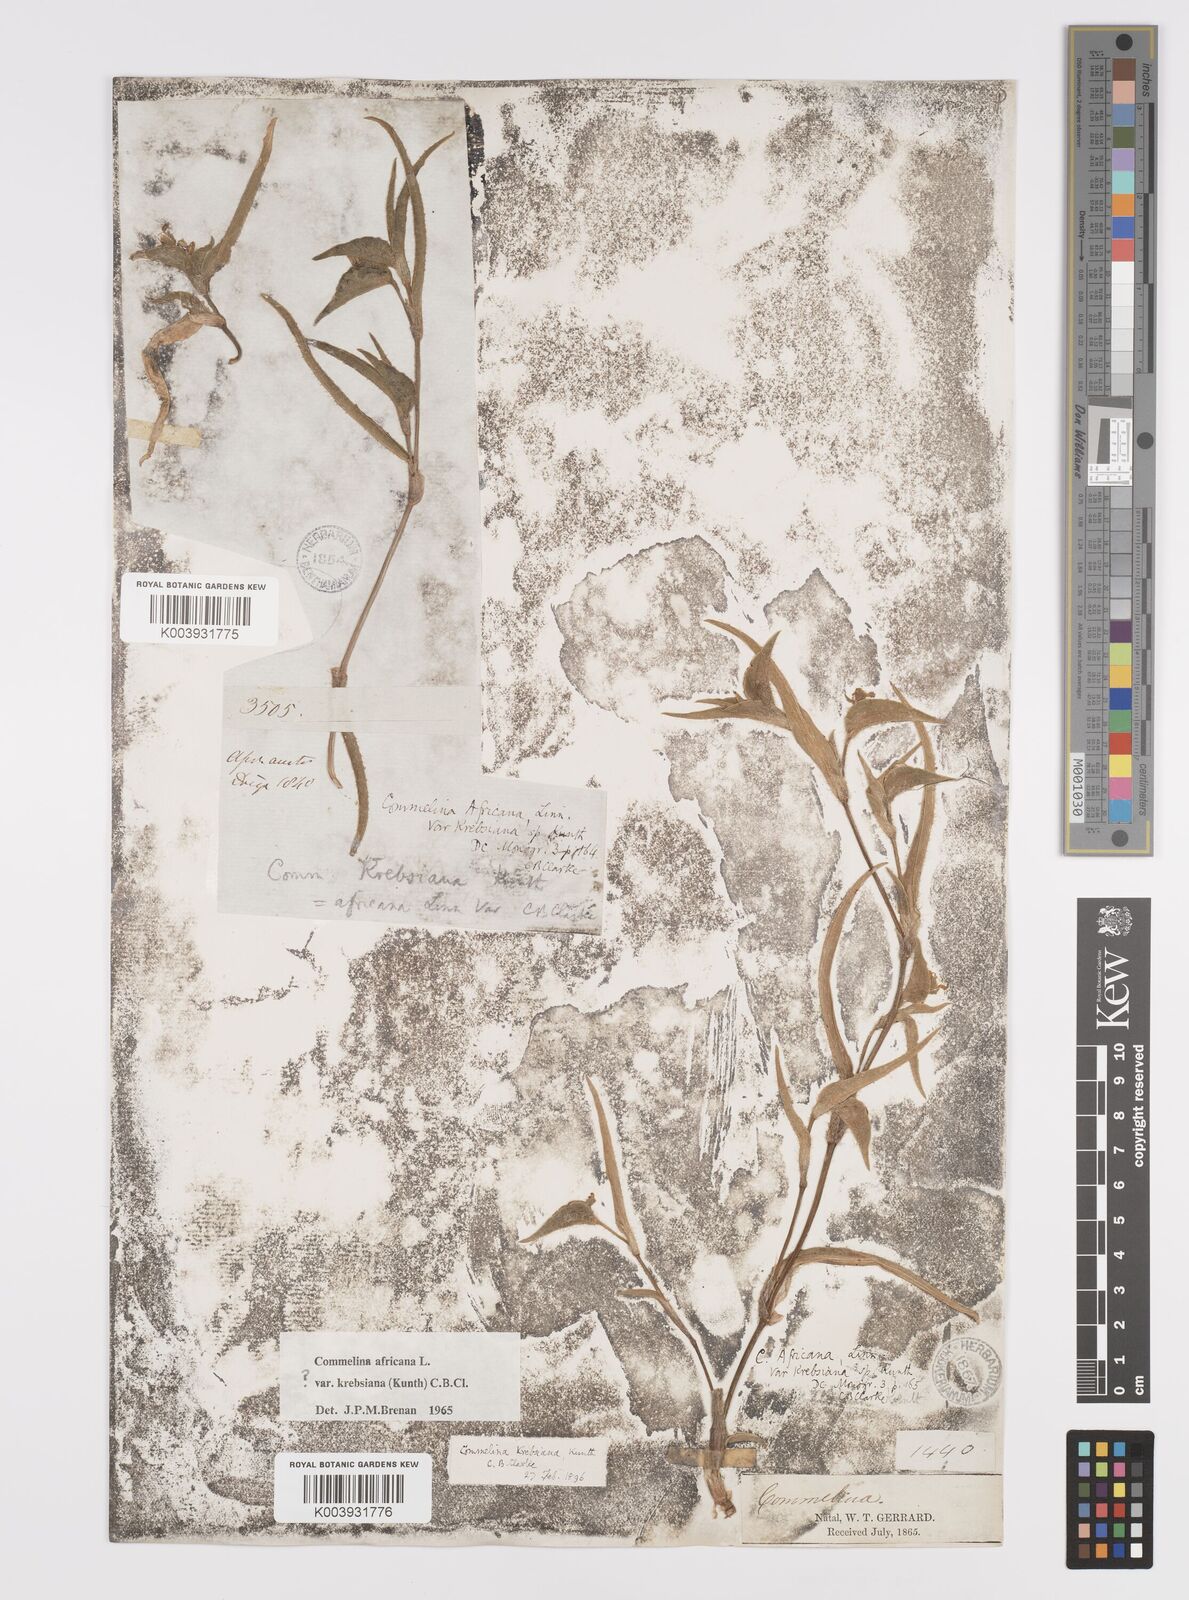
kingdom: Plantae
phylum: Tracheophyta
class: Liliopsida
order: Commelinales
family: Commelinaceae
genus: Commelina
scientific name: Commelina africana
